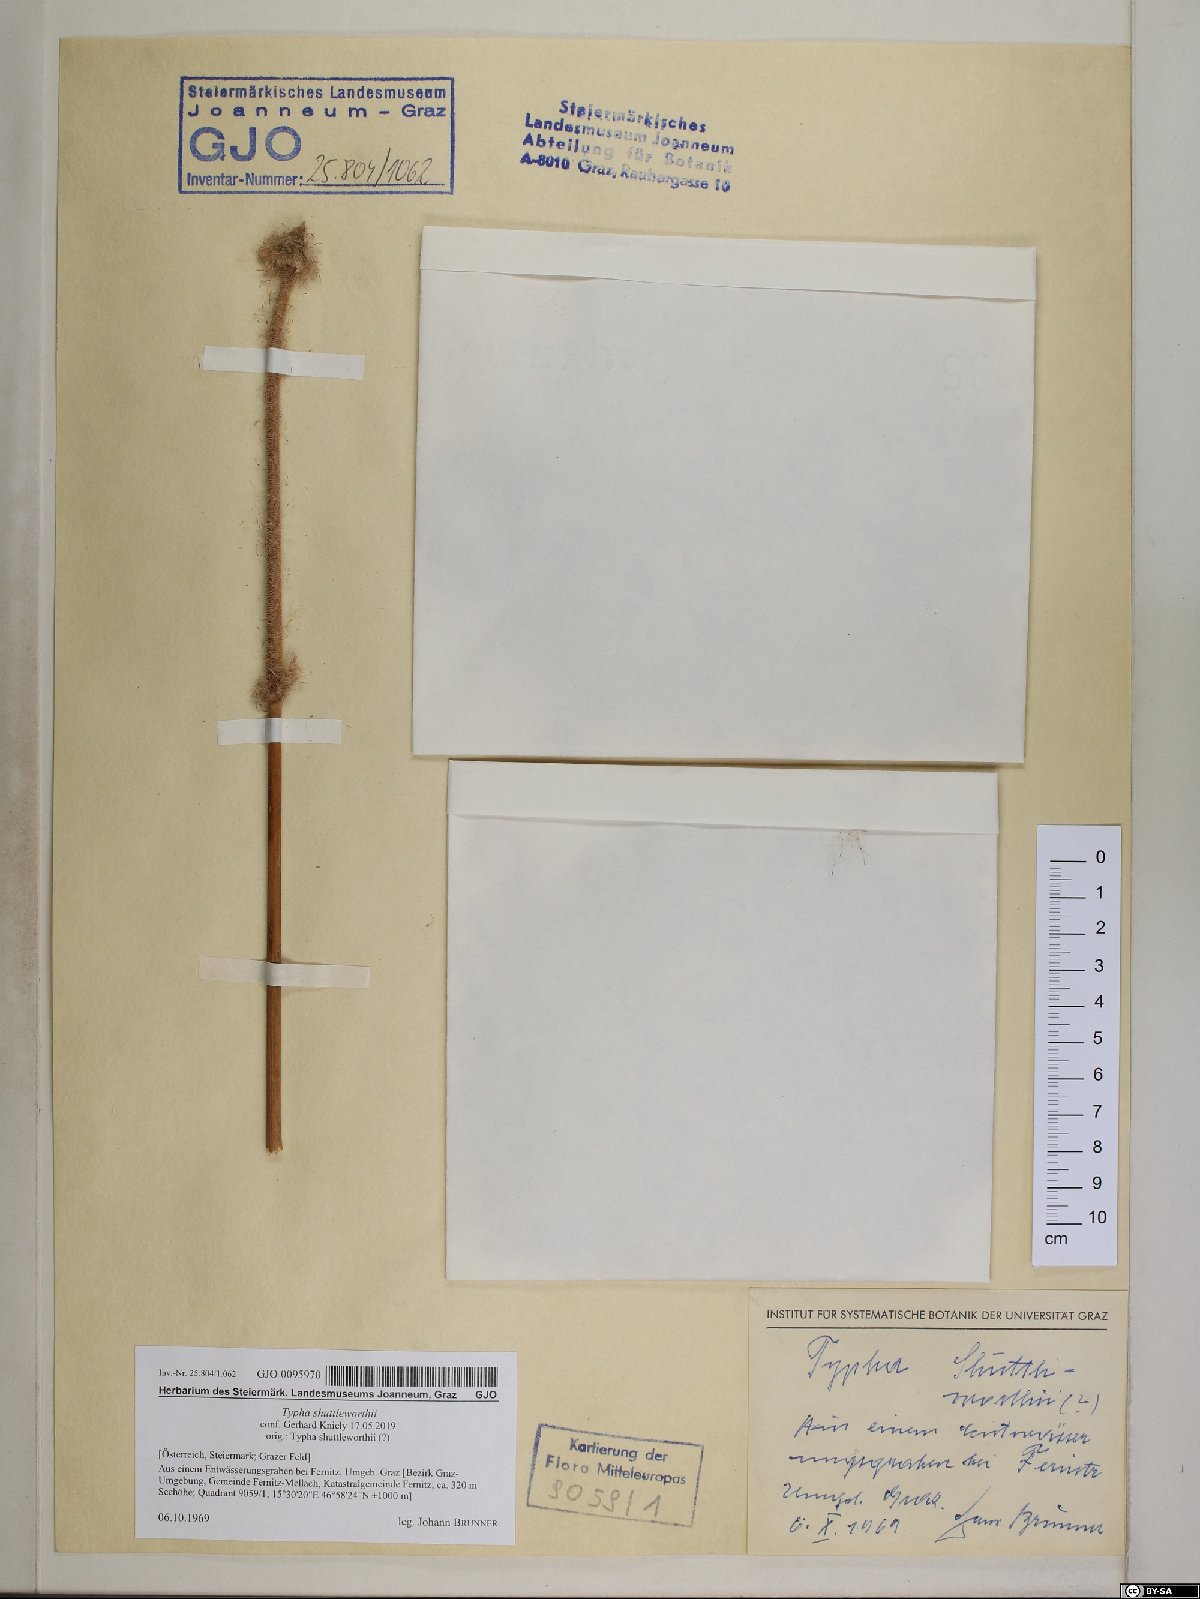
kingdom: Plantae
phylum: Tracheophyta
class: Liliopsida
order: Poales
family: Typhaceae
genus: Typha
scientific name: Typha shuttleworthii
